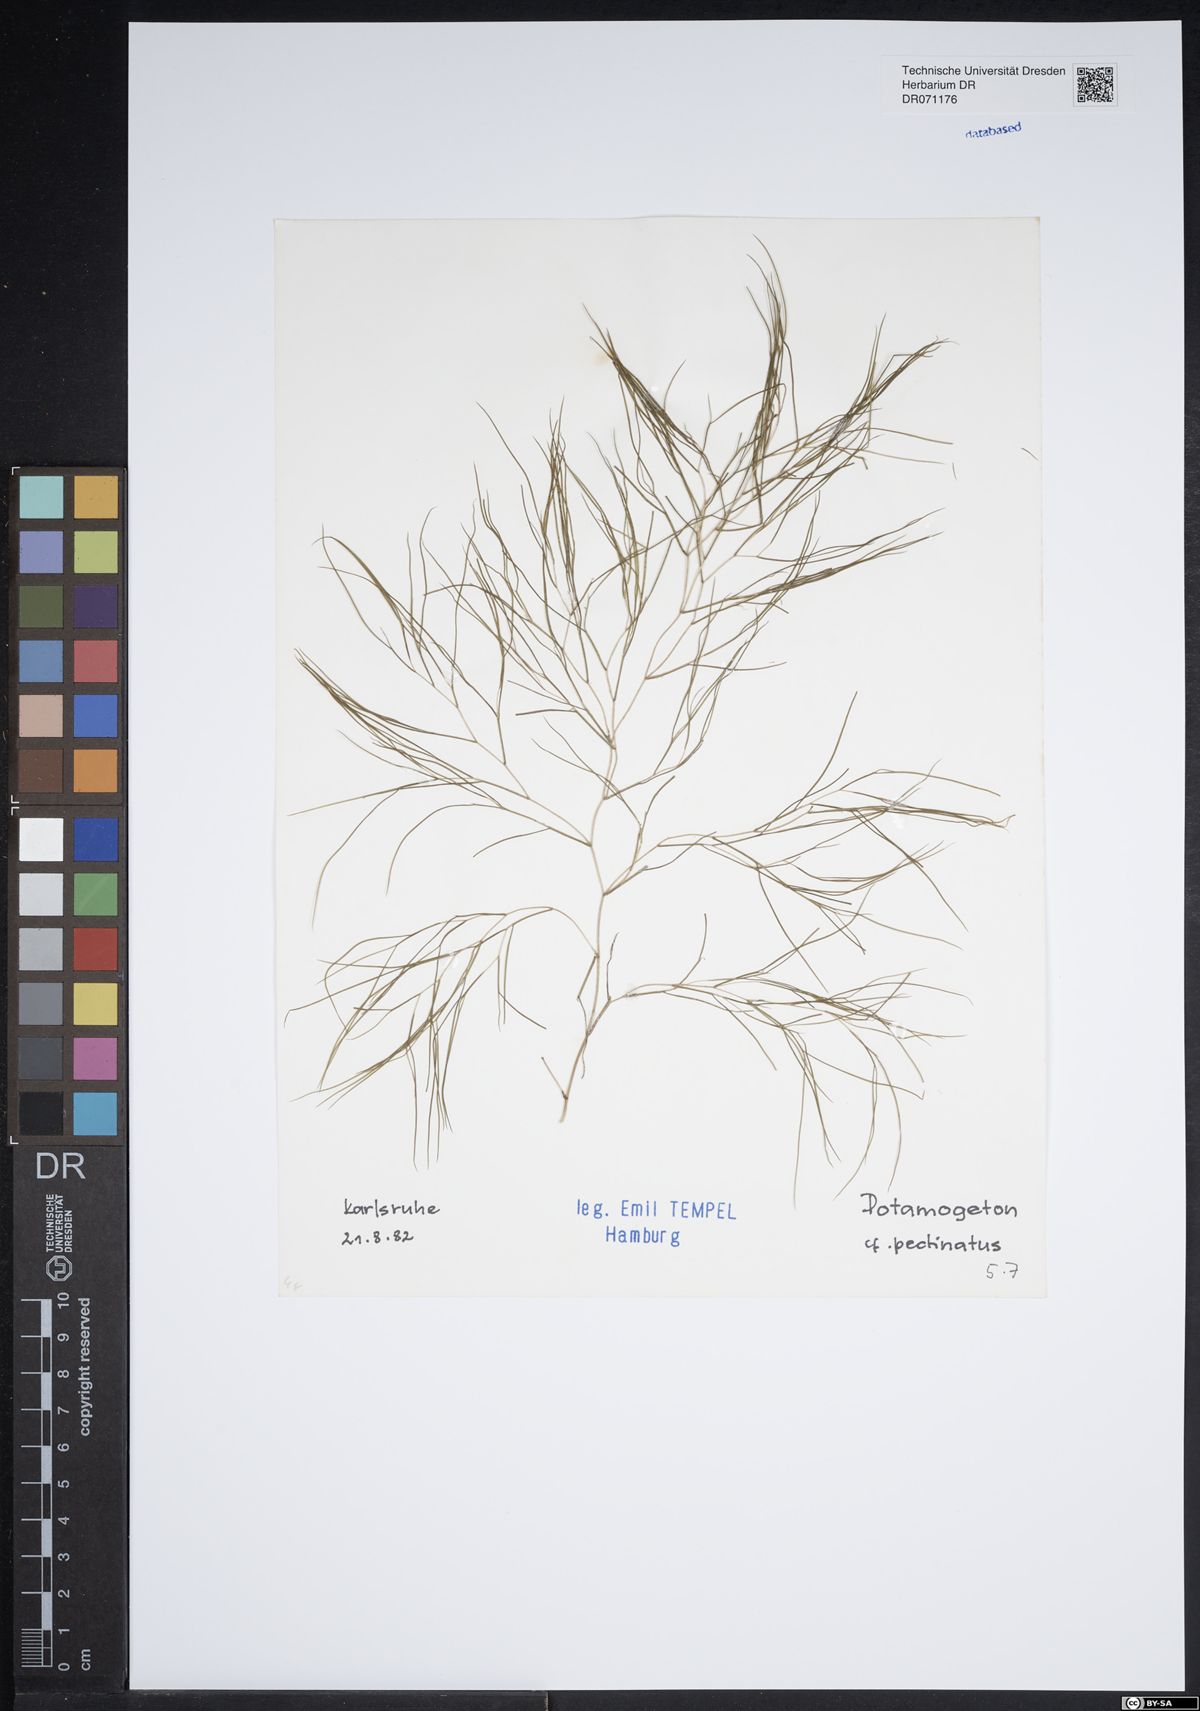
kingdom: Plantae
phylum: Tracheophyta
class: Liliopsida
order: Alismatales
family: Potamogetonaceae
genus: Stuckenia
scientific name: Stuckenia pectinata
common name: Sago pondweed
